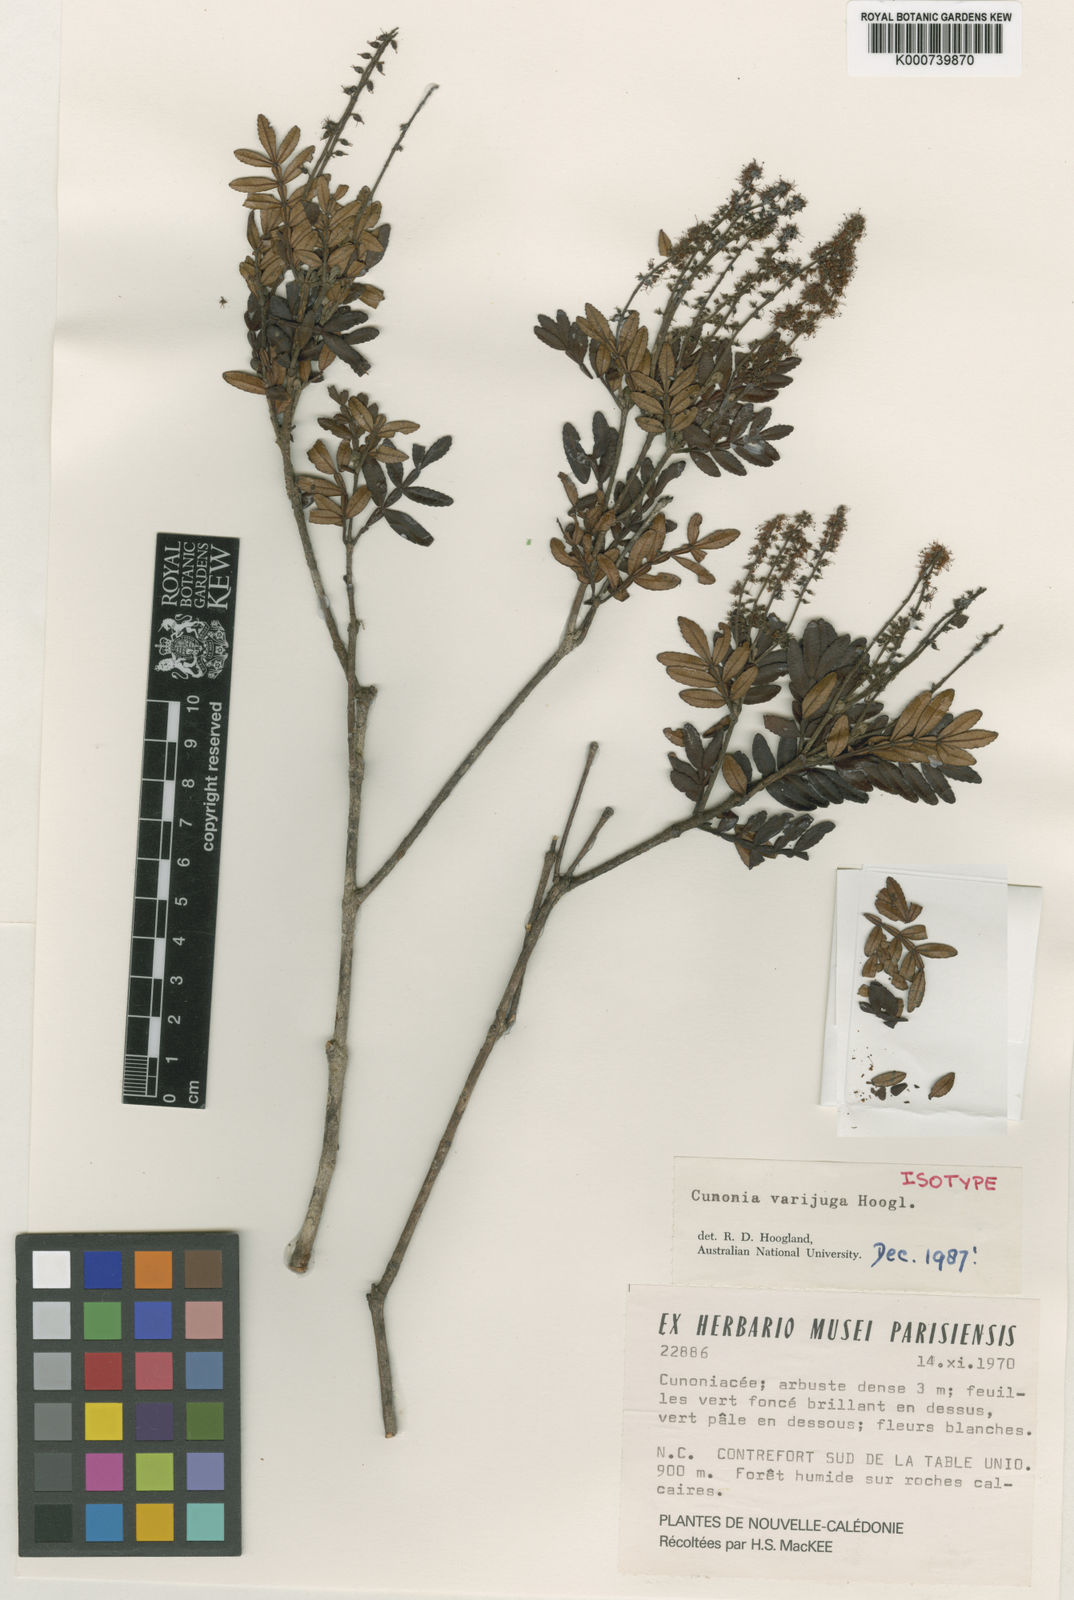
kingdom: Plantae
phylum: Tracheophyta
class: Magnoliopsida
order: Oxalidales
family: Cunoniaceae
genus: Cunonia
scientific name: Cunonia varijuga
